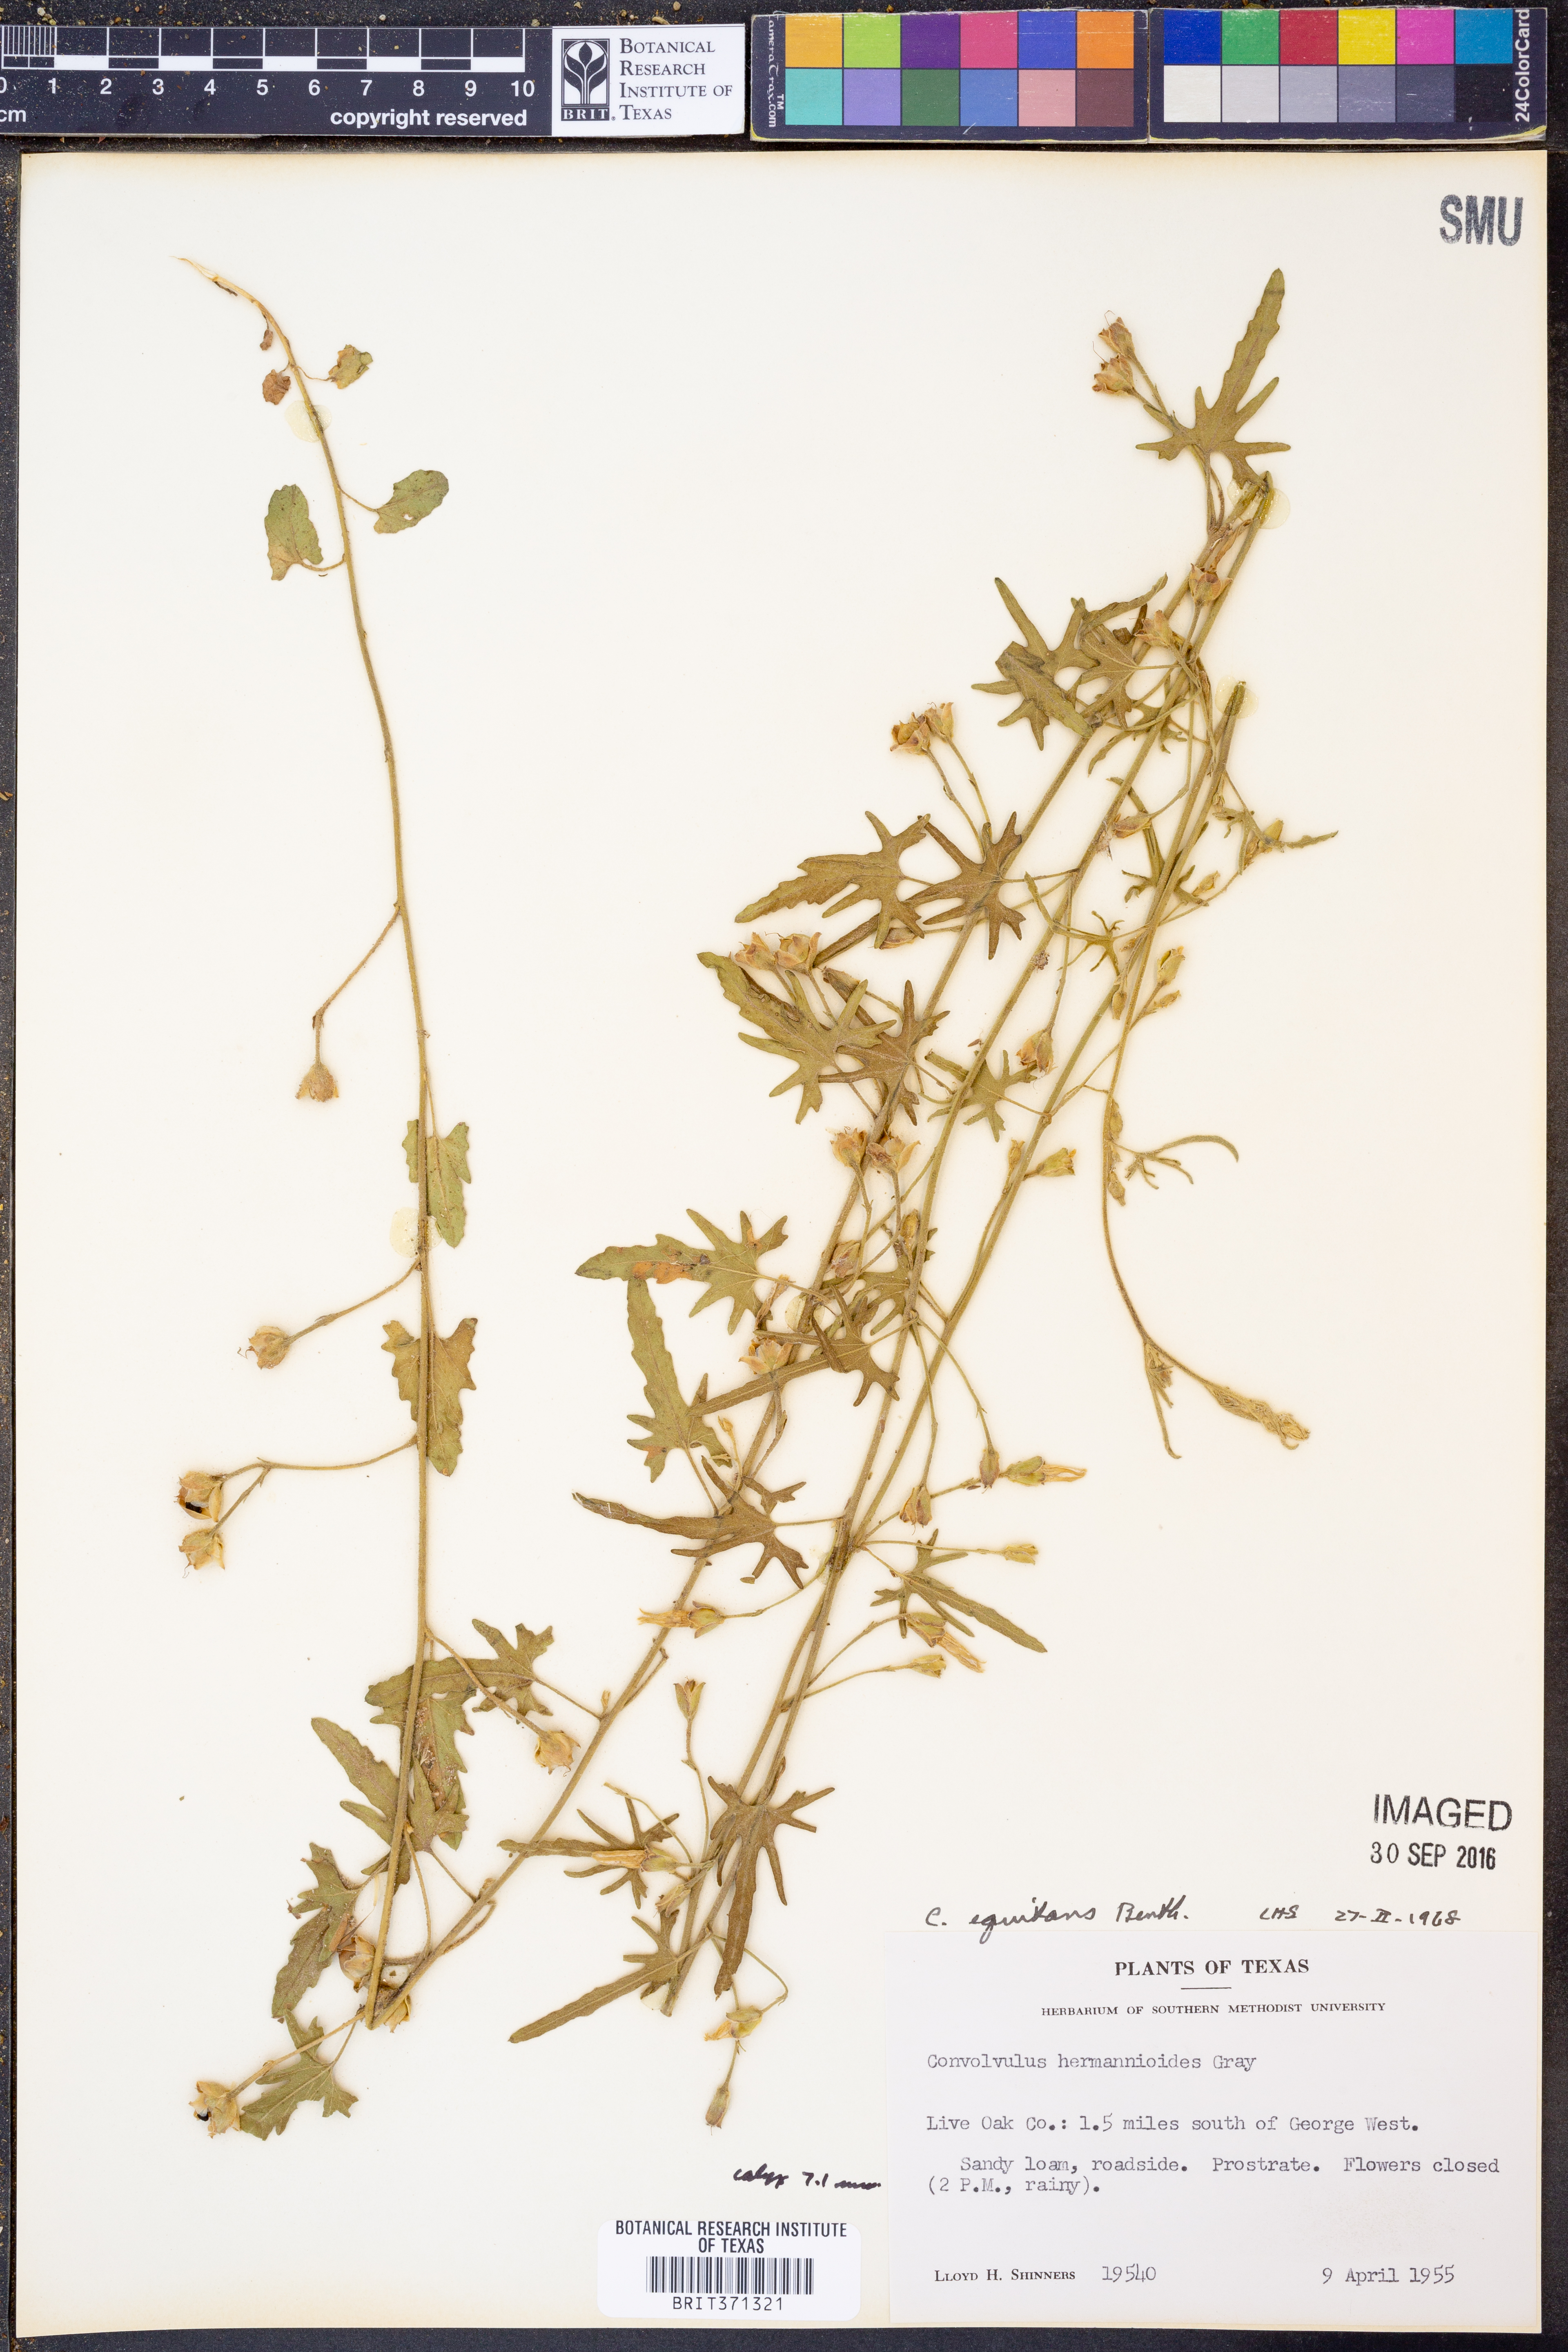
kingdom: Plantae
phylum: Tracheophyta
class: Magnoliopsida
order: Solanales
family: Convolvulaceae
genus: Convolvulus
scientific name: Convolvulus equitans
